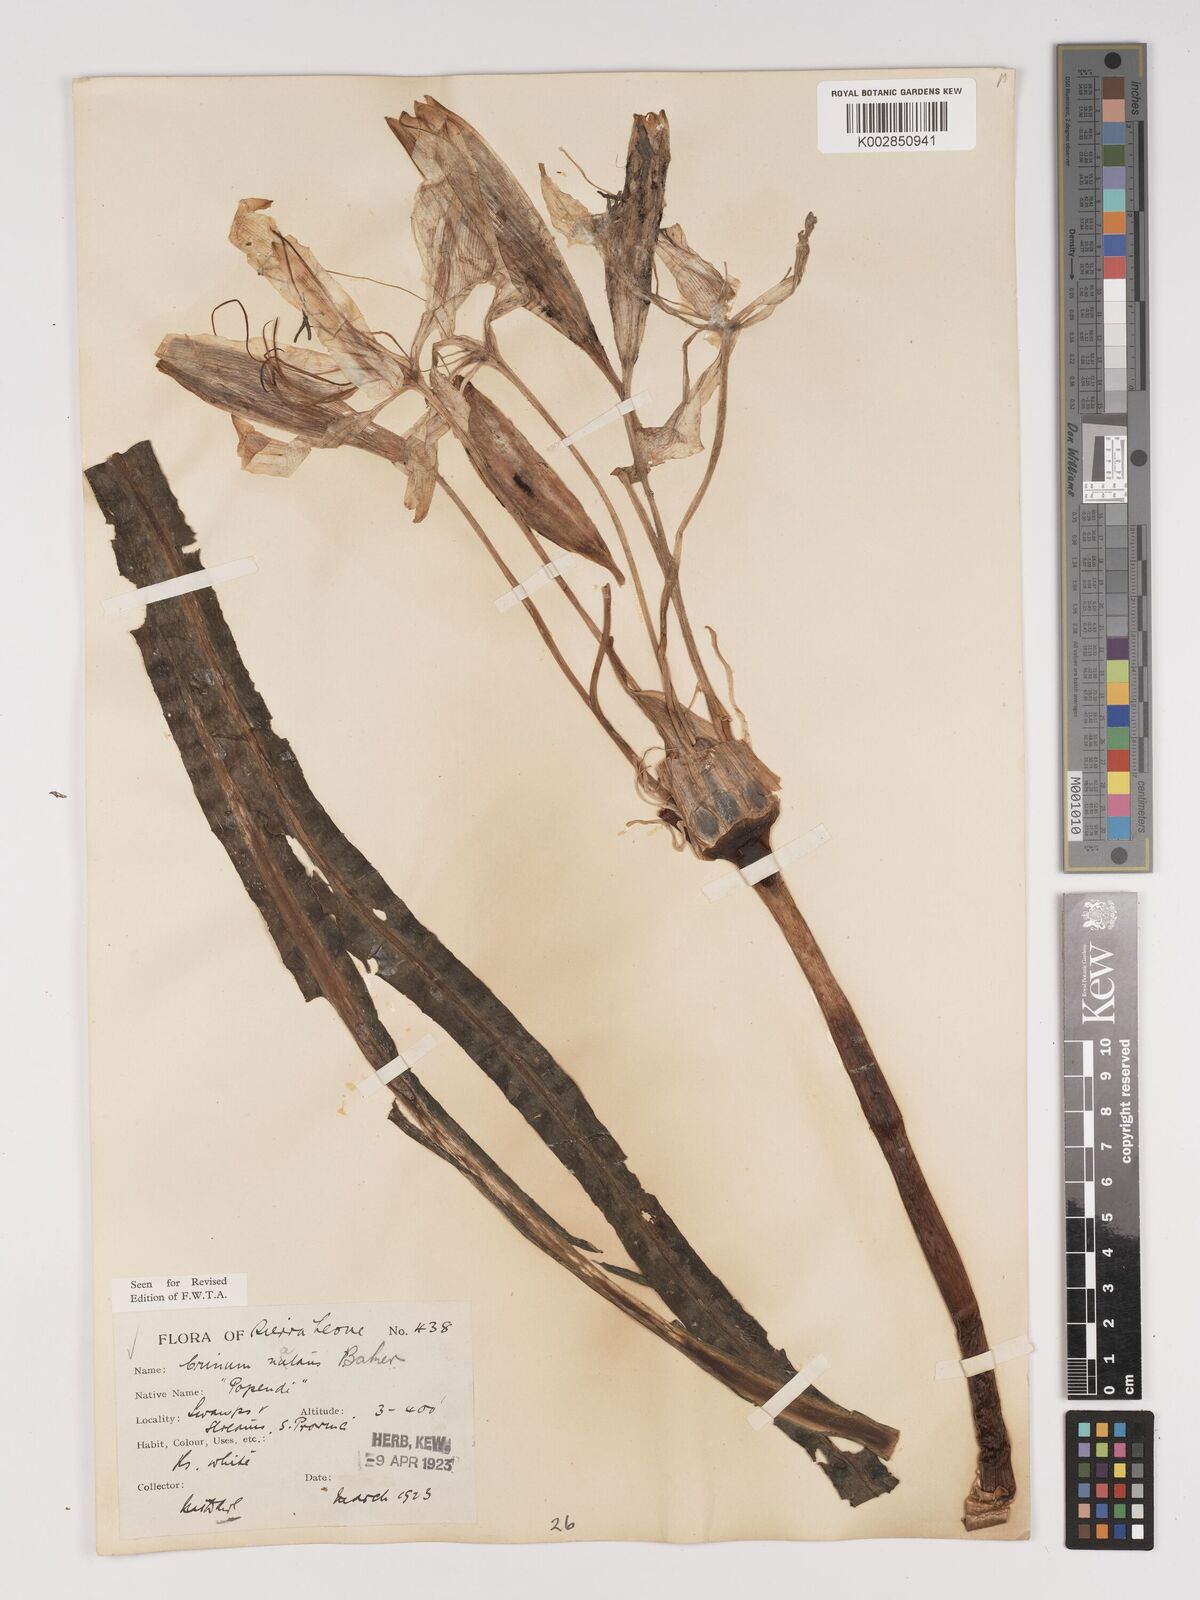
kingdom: Plantae
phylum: Tracheophyta
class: Liliopsida
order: Asparagales
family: Amaryllidaceae
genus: Crinum
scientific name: Crinum moorei
